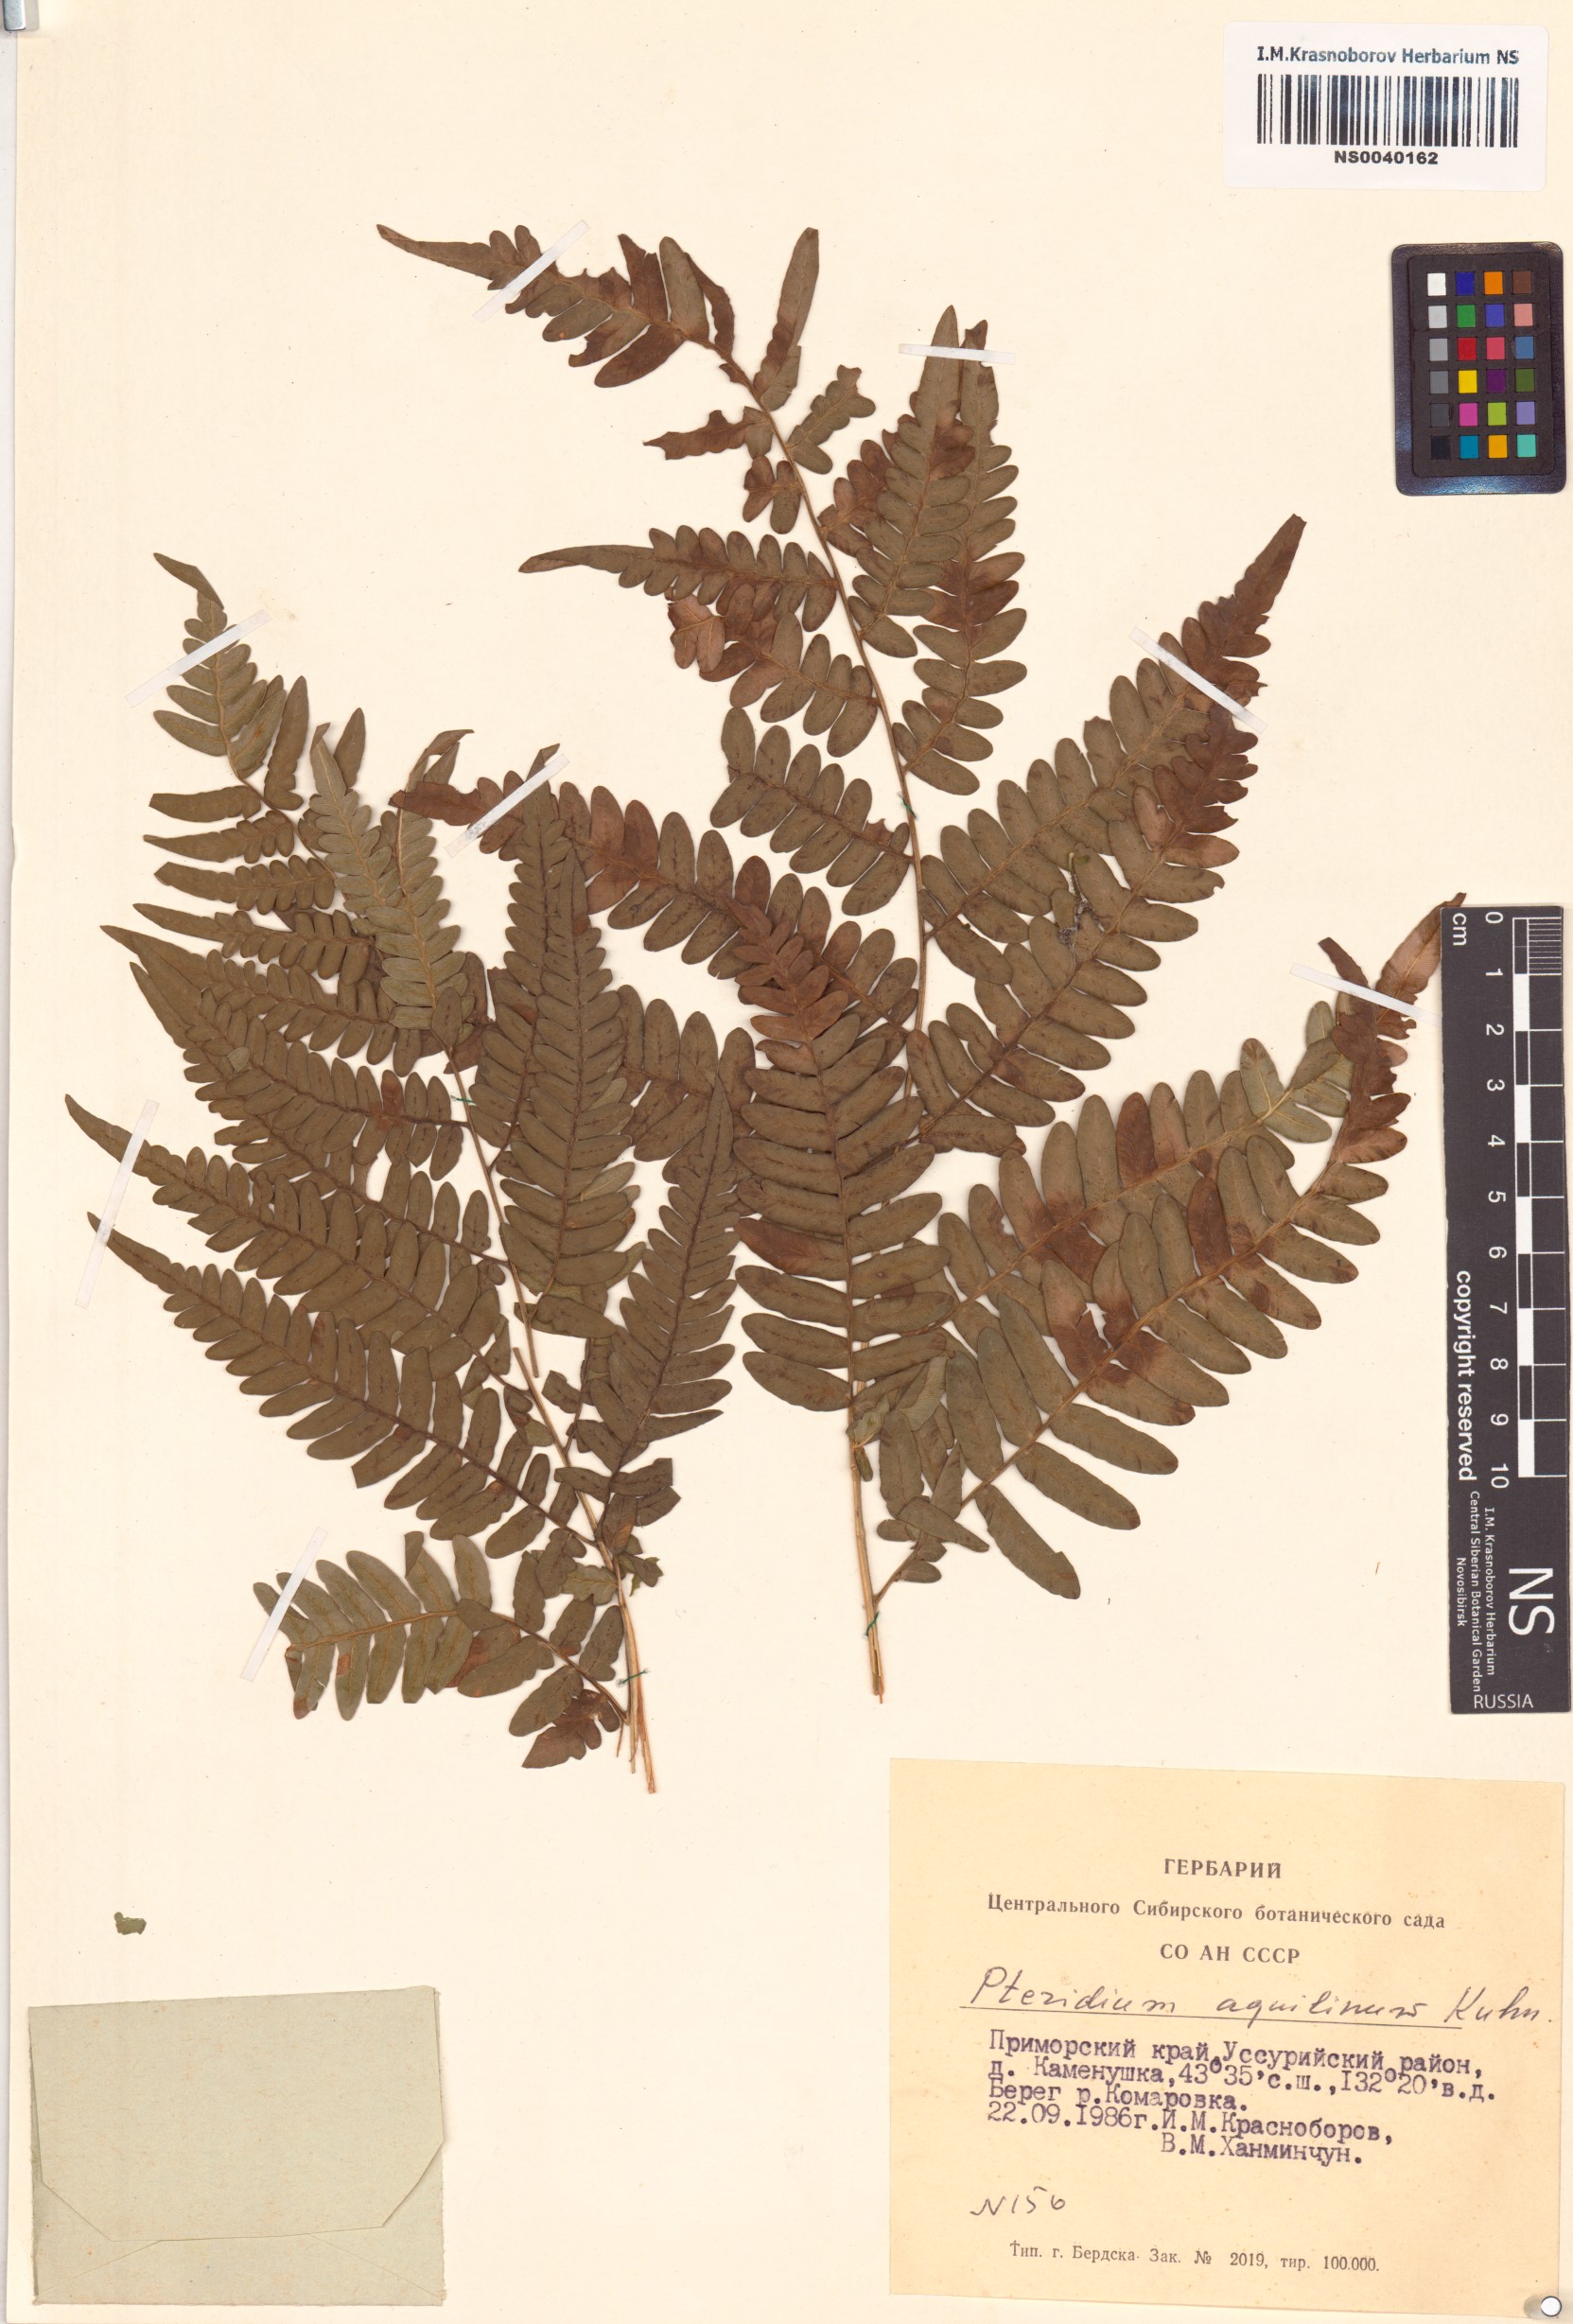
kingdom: Plantae
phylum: Tracheophyta
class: Polypodiopsida
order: Polypodiales
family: Dennstaedtiaceae
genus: Pteridium
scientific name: Pteridium aquilinum
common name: Bracken
